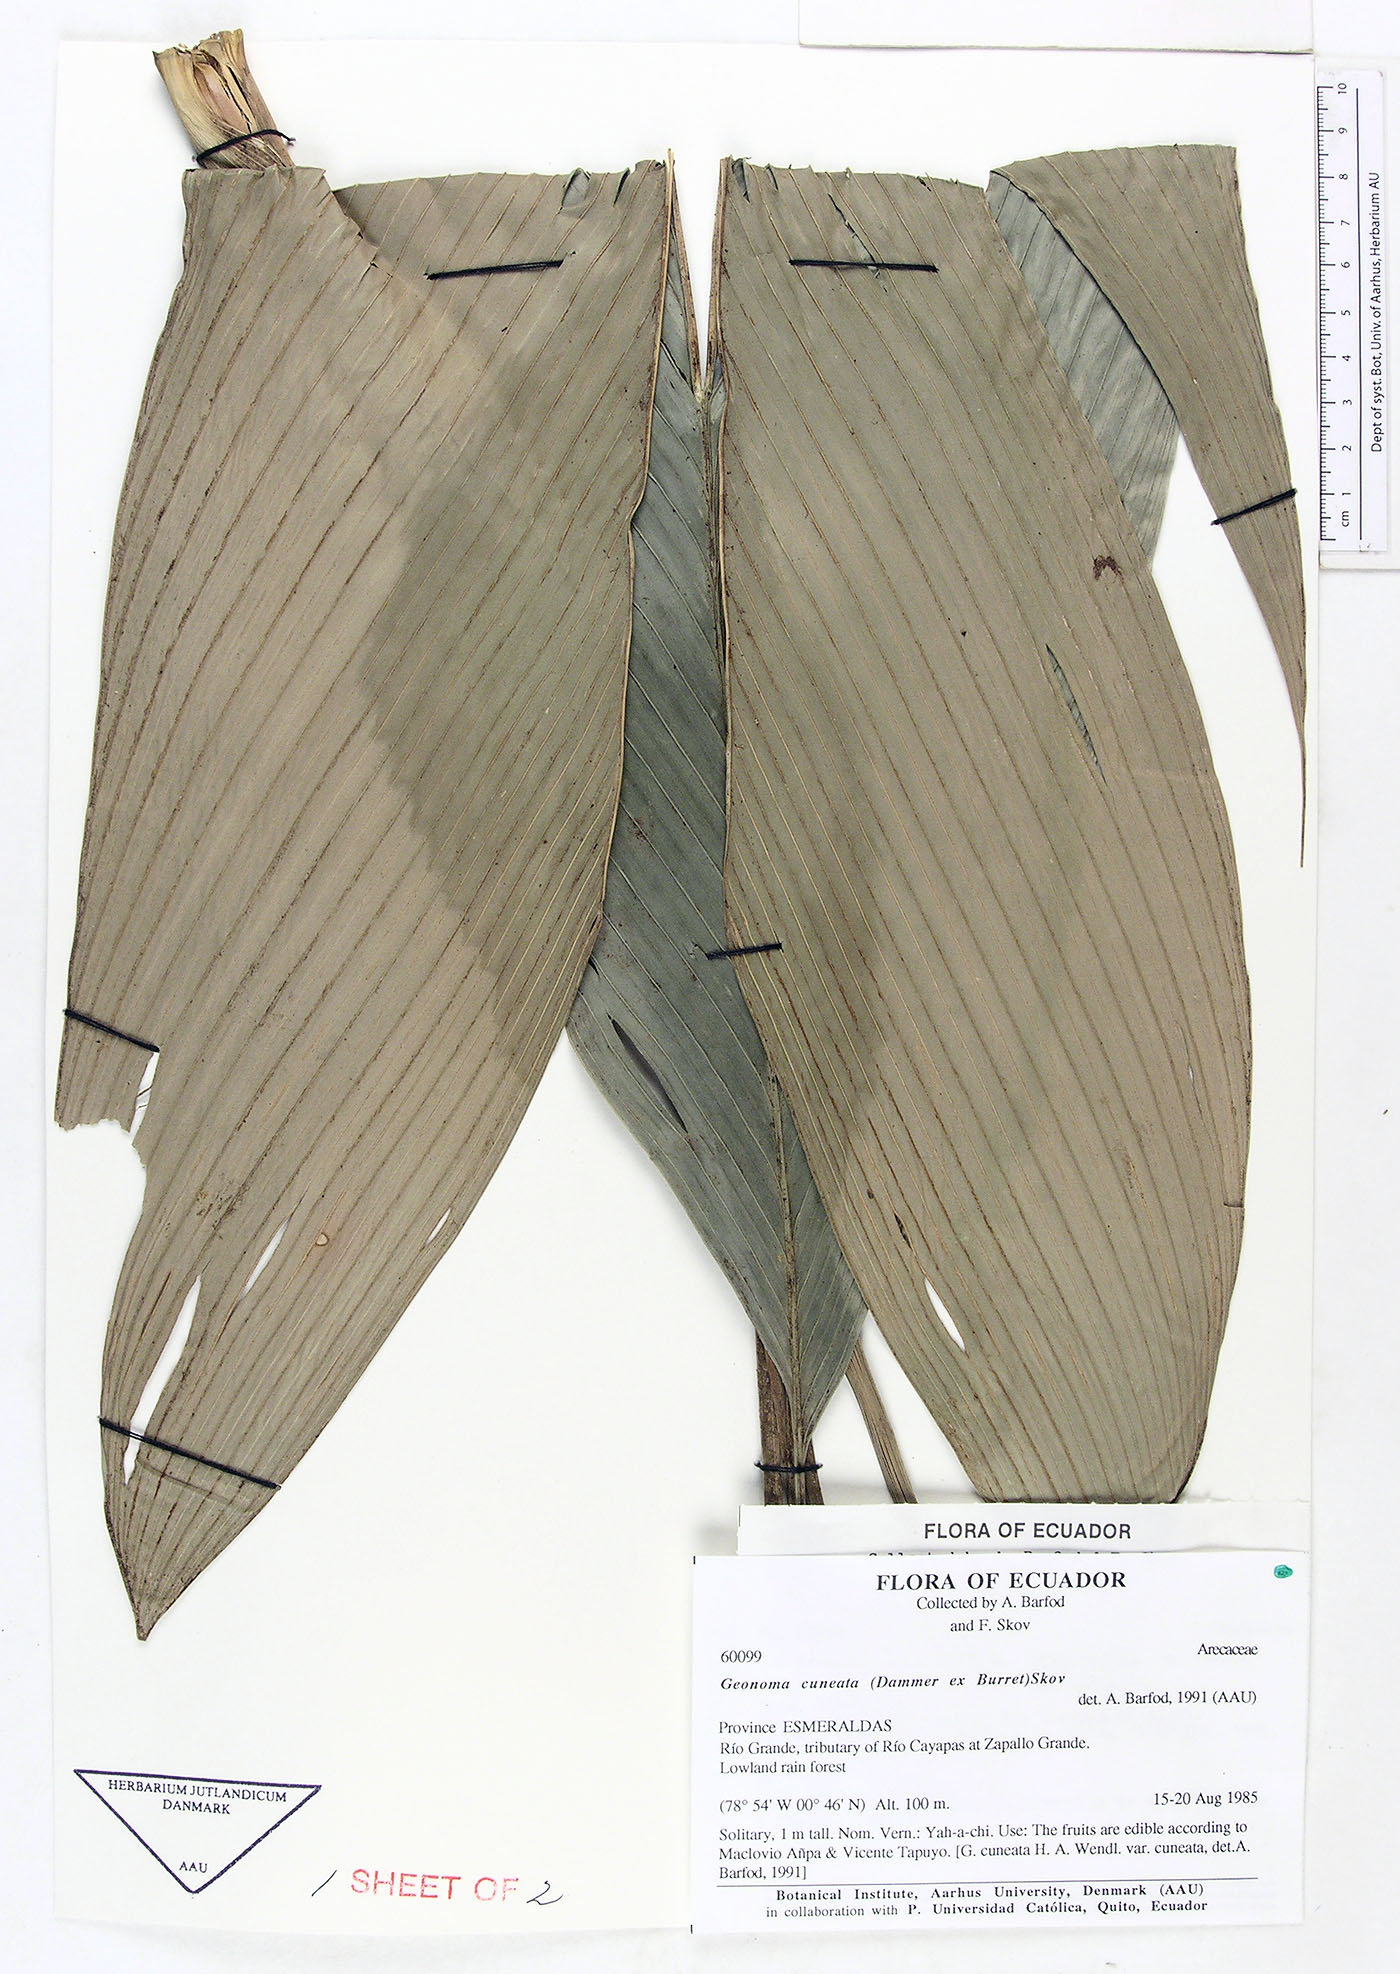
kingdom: Plantae
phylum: Tracheophyta
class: Liliopsida
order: Arecales
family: Arecaceae
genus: Geonoma
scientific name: Geonoma cuneata
